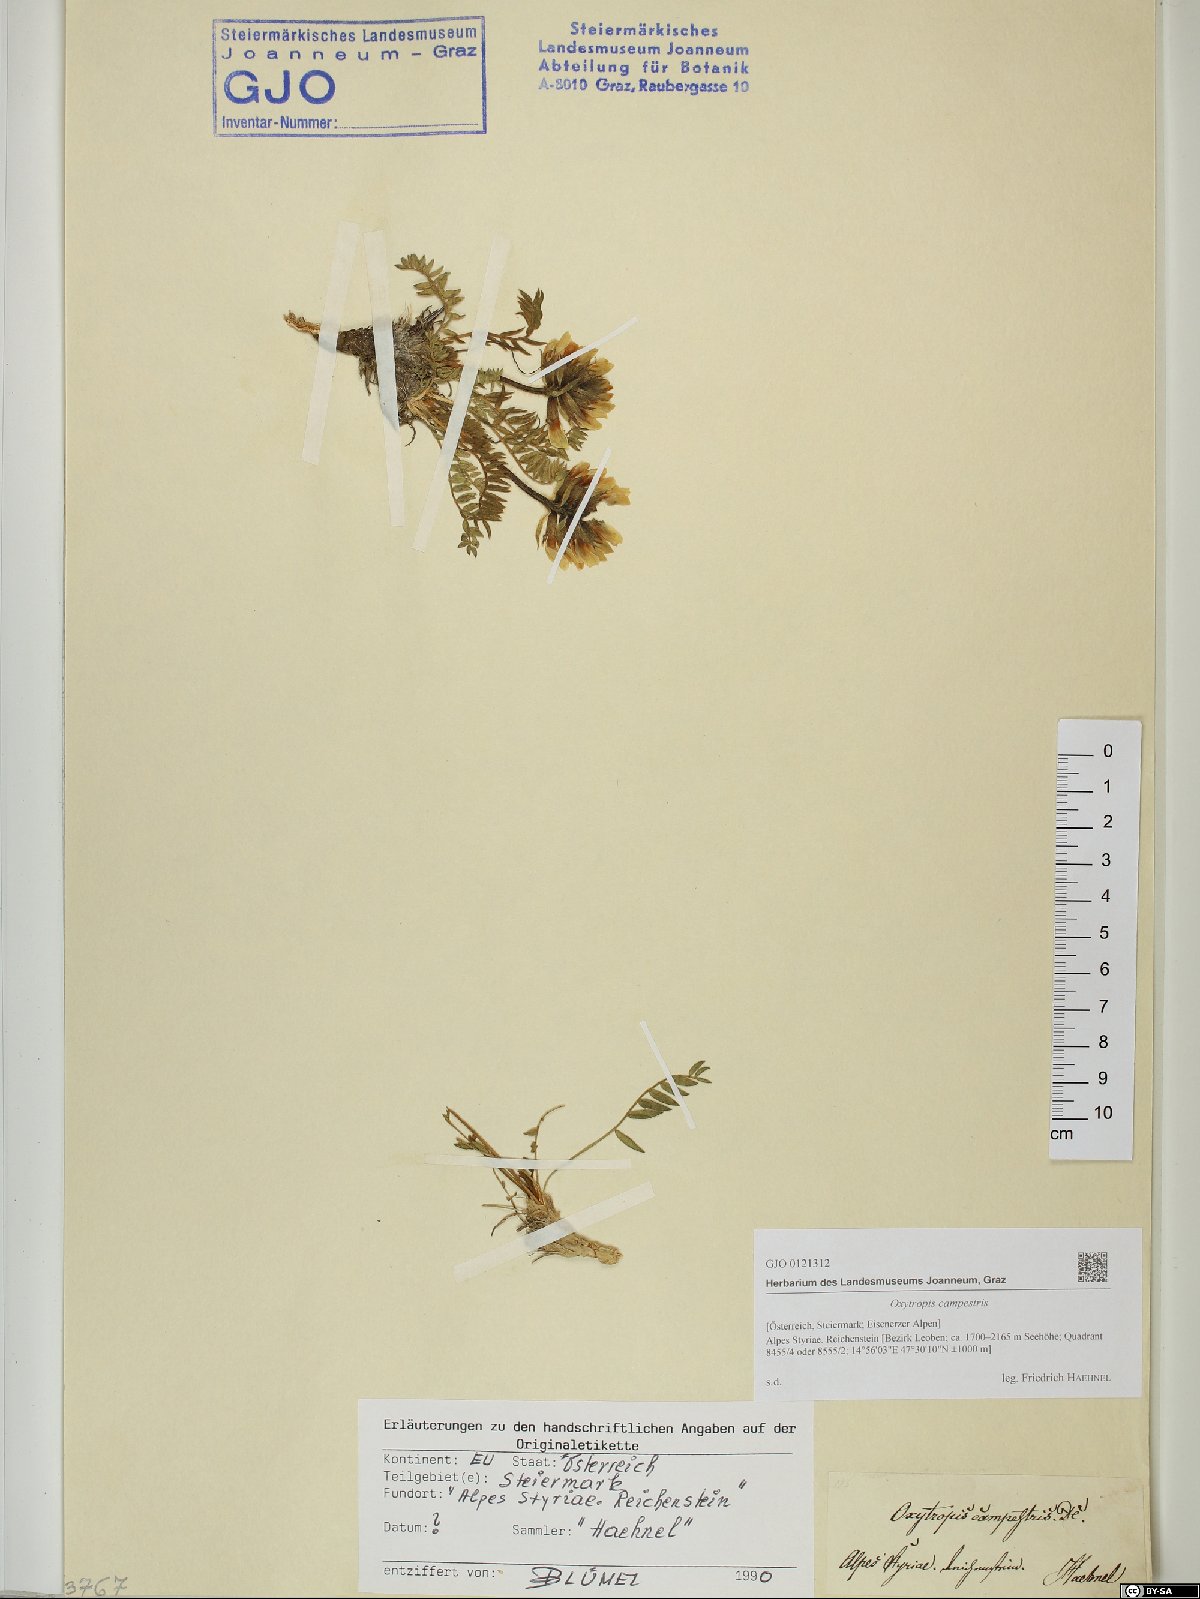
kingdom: Plantae
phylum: Tracheophyta
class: Magnoliopsida
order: Fabales
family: Fabaceae
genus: Oxytropis
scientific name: Oxytropis campestris
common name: Field locoweed
